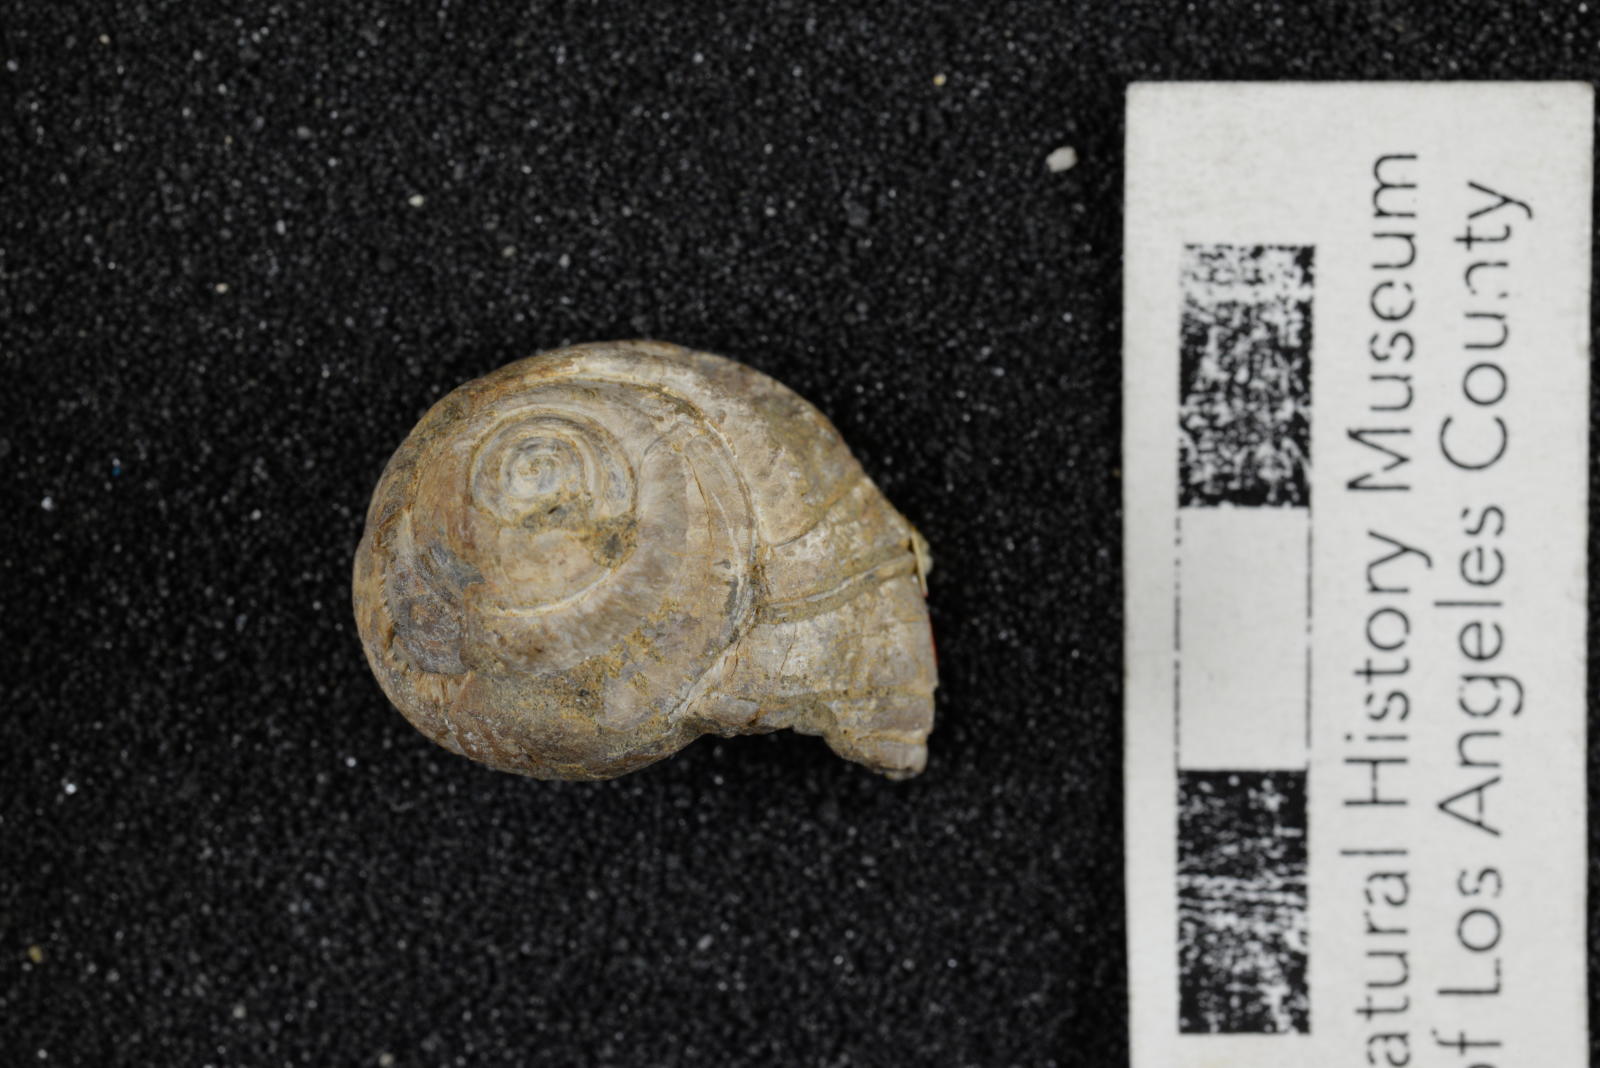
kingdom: Animalia
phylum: Mollusca
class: Gastropoda
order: Architaenioglossa
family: Ampullinidae
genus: Ampullina
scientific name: Ampullina packardi
